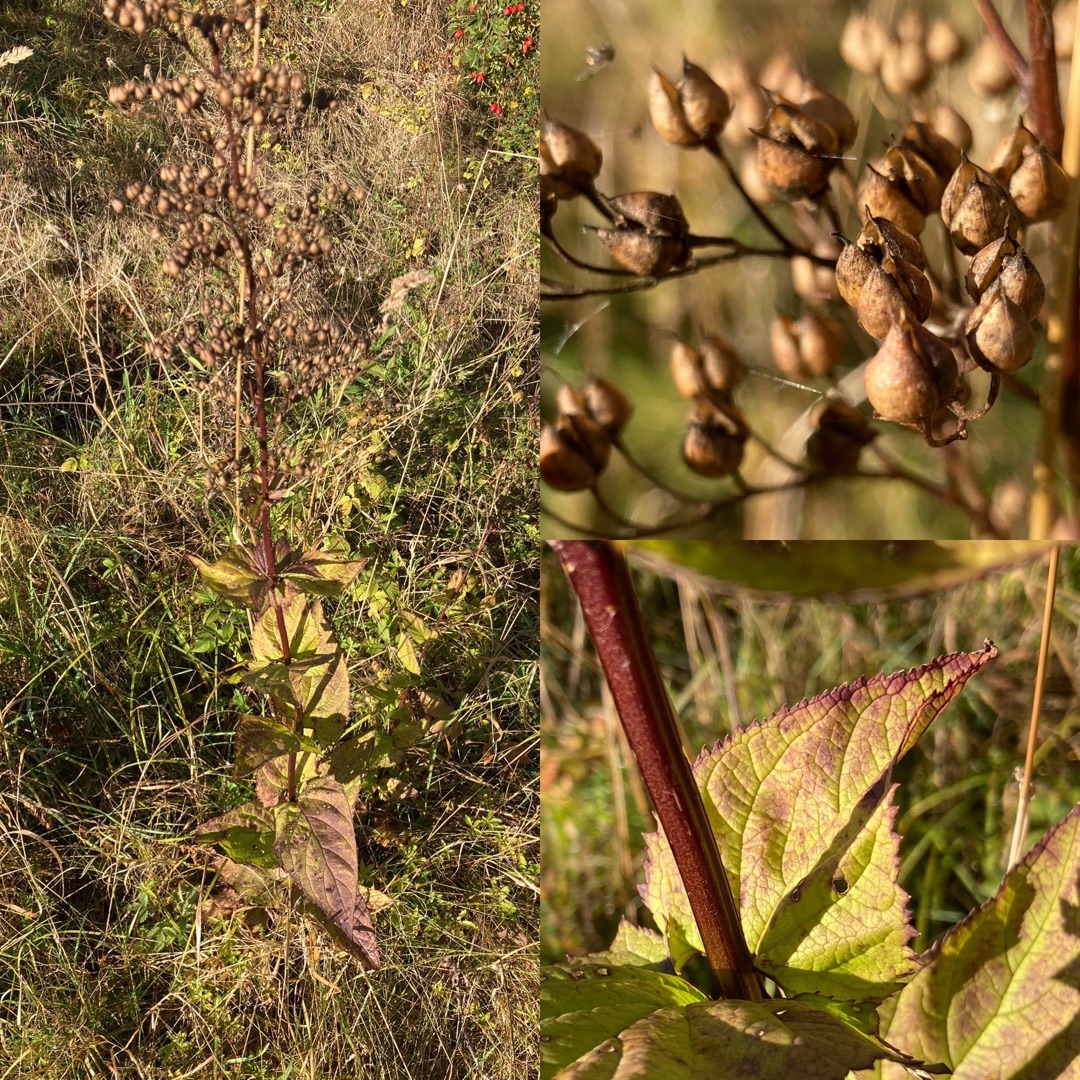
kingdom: Plantae
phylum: Tracheophyta
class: Magnoliopsida
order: Lamiales
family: Scrophulariaceae
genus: Scrophularia
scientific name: Scrophularia nodosa
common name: Knoldet brunrod
